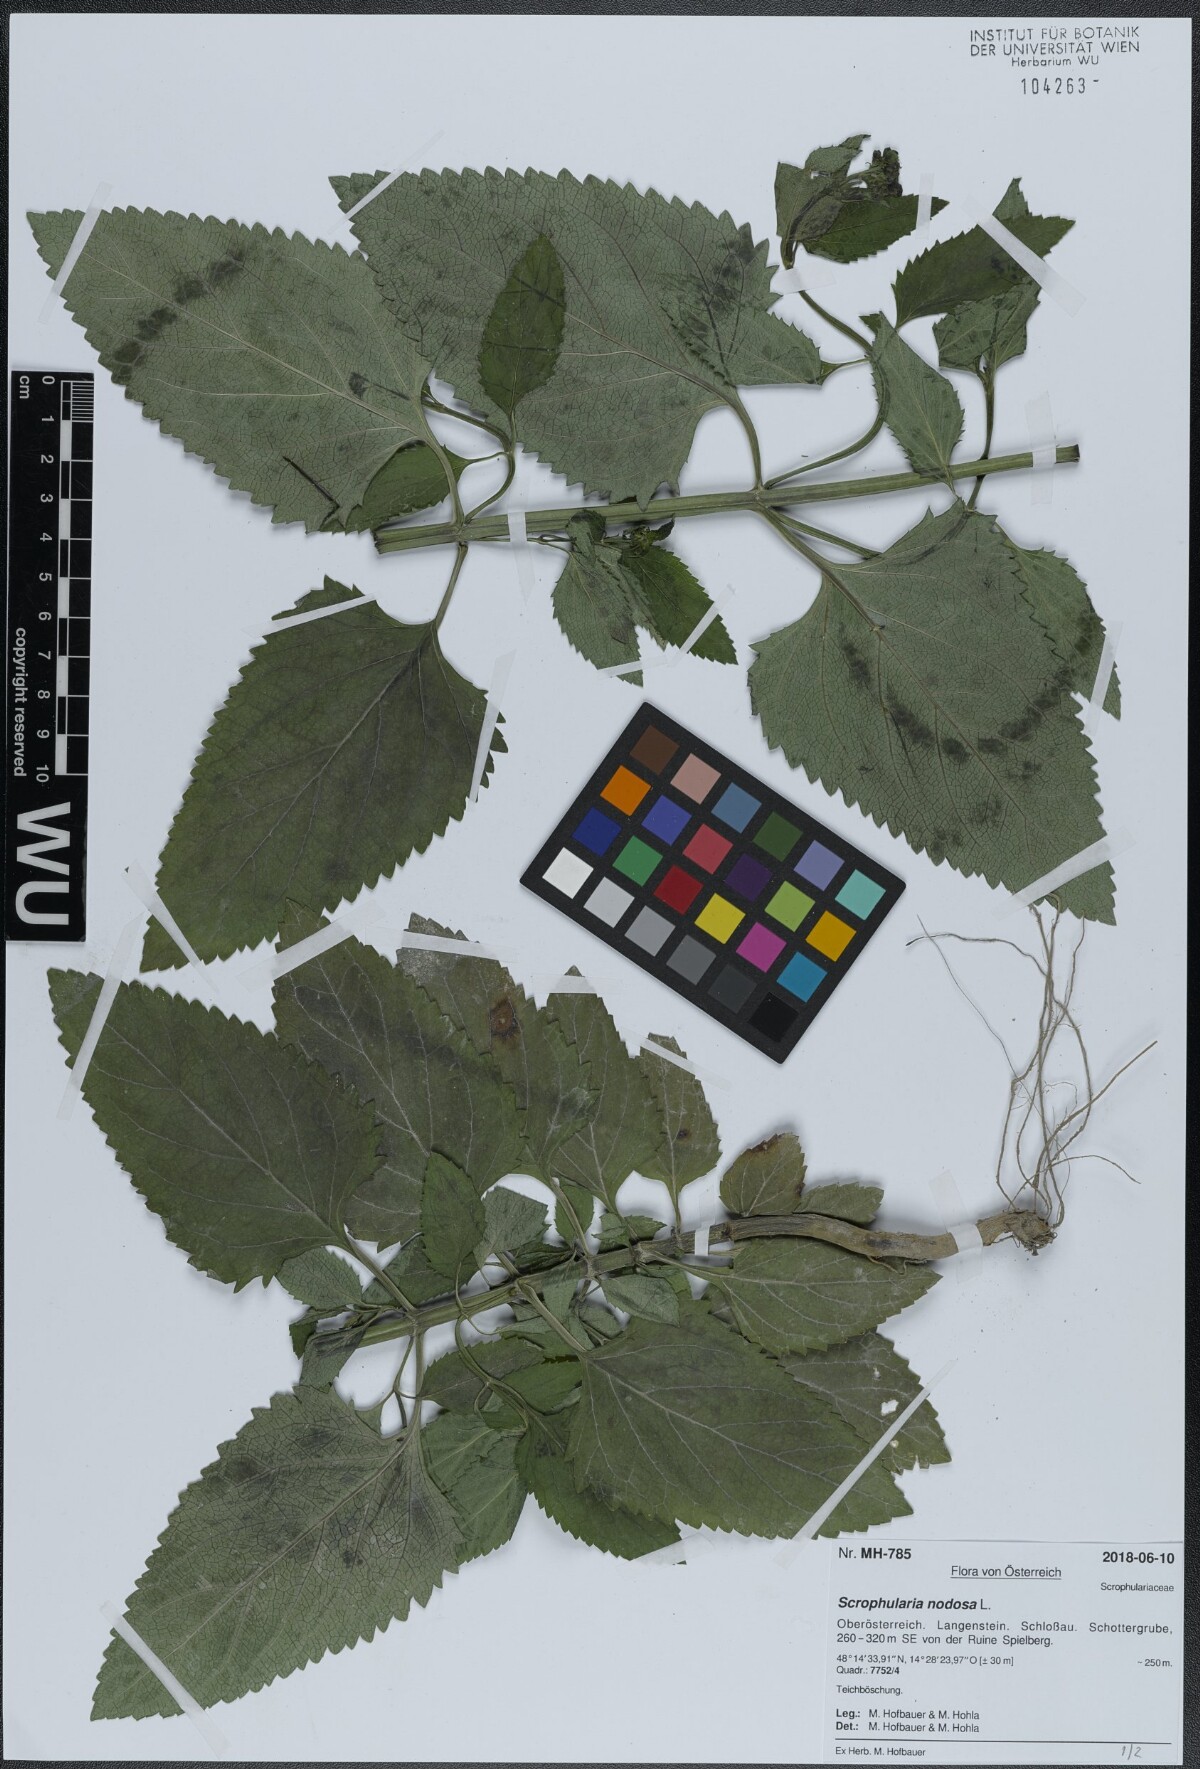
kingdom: Plantae
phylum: Tracheophyta
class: Magnoliopsida
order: Lamiales
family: Scrophulariaceae
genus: Scrophularia
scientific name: Scrophularia nodosa
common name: Common figwort
